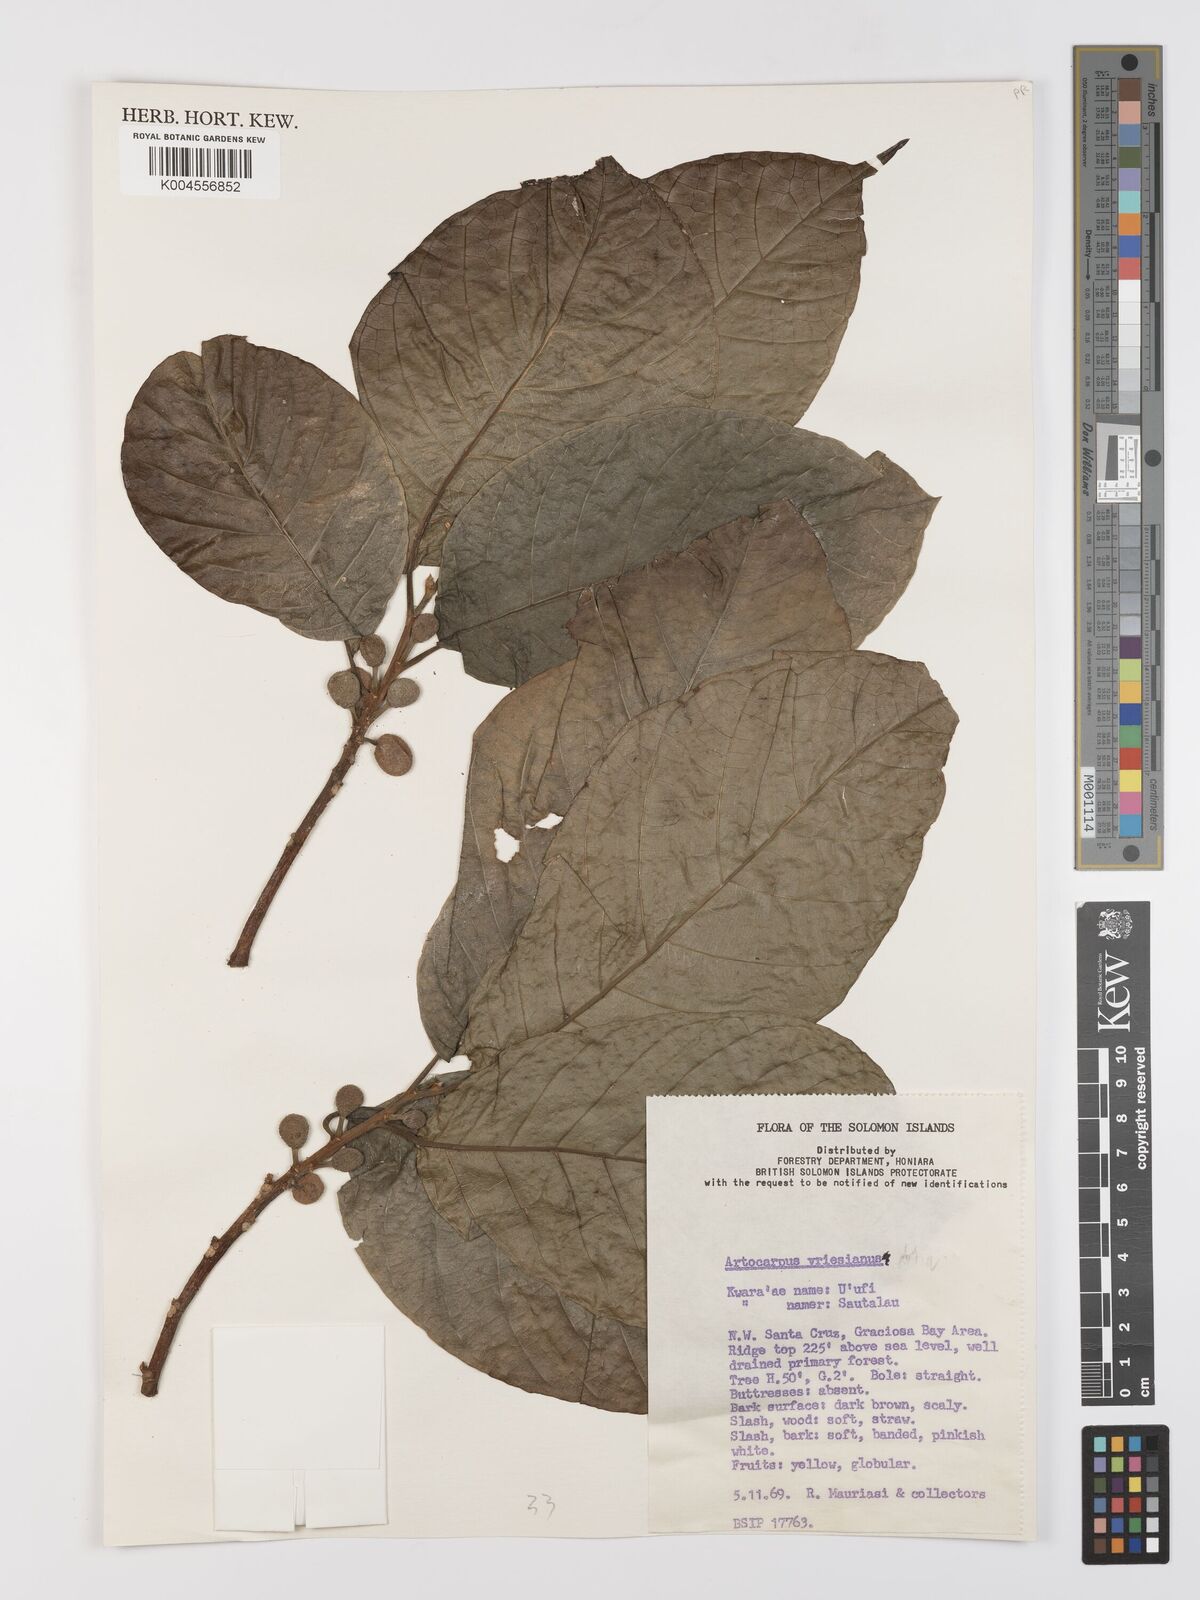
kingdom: Plantae
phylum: Tracheophyta
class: Magnoliopsida
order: Rosales
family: Moraceae
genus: Artocarpus
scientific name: Artocarpus vrieseanus
